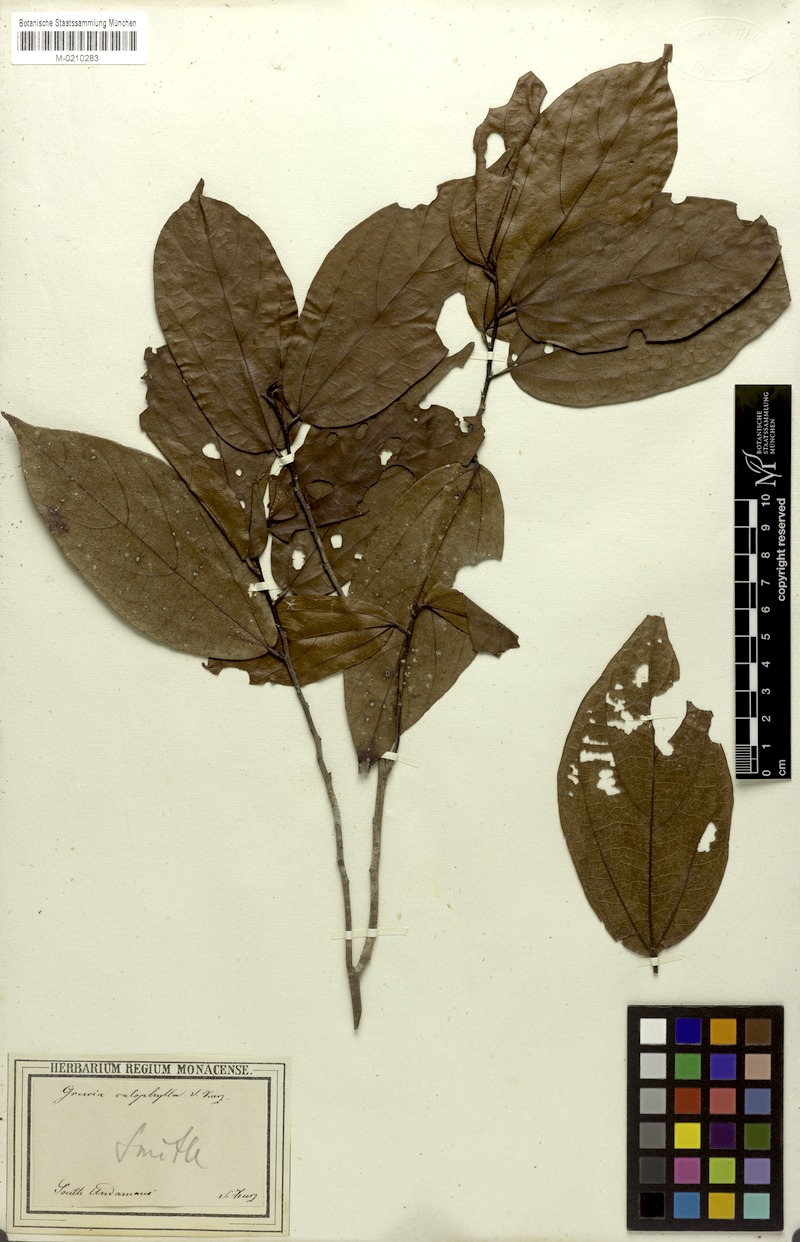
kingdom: Plantae
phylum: Tracheophyta
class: Magnoliopsida
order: Malvales
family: Malvaceae
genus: Microcos
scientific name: Microcos calophylla
